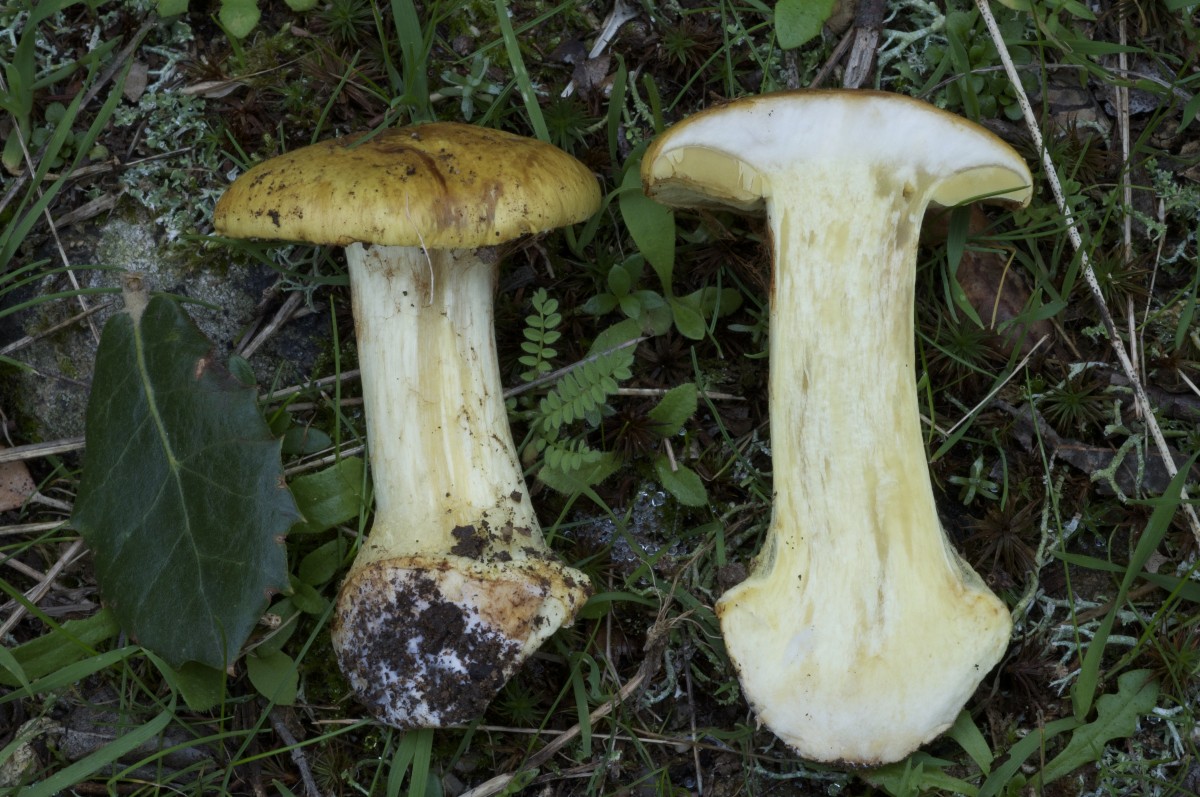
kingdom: Fungi
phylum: Basidiomycota
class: Agaricomycetes
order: Agaricales
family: Cortinariaceae
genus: Calonarius
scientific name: Calonarius xanthochlorus
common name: gulgrøn slørhat
